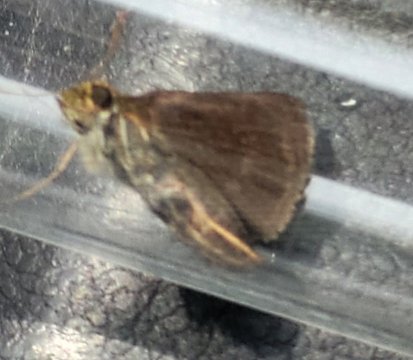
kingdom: Animalia
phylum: Arthropoda
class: Insecta
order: Lepidoptera
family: Hesperiidae
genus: Euphyes
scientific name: Euphyes vestris
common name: Dun Skipper
